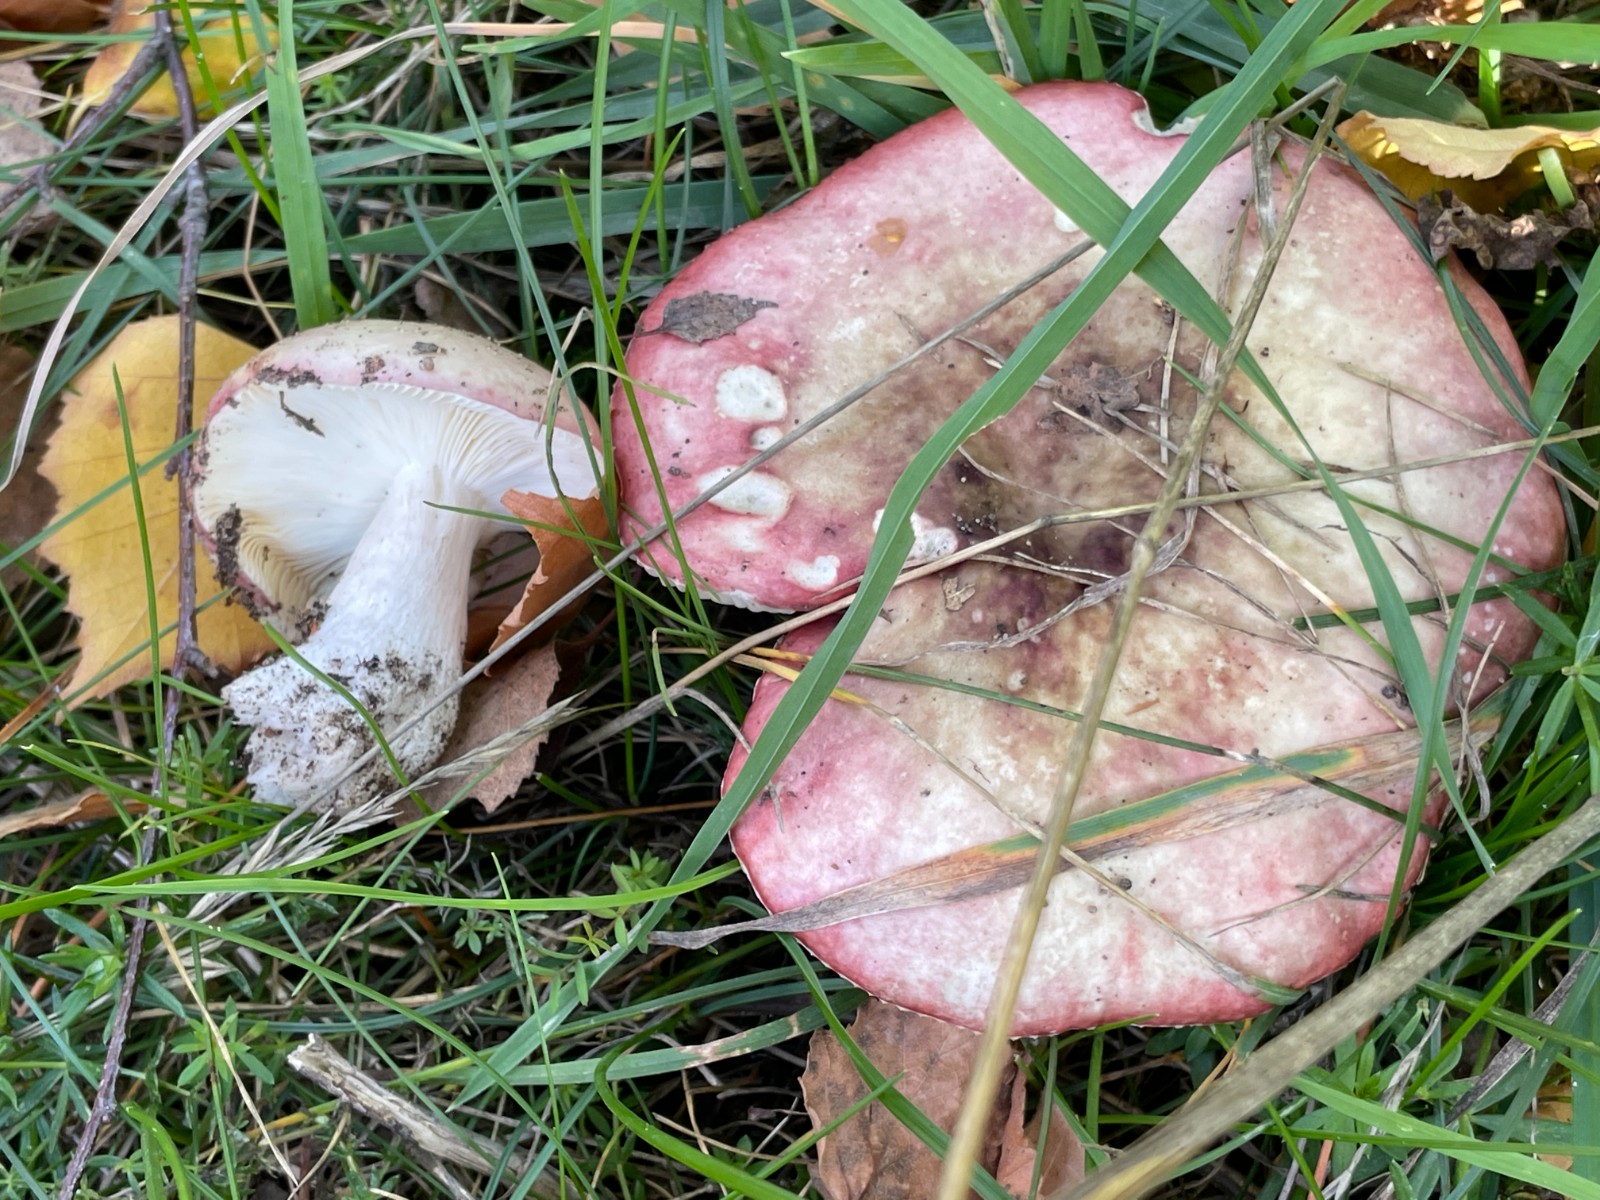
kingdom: Fungi
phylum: Basidiomycota
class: Agaricomycetes
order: Russulales
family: Russulaceae
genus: Russula
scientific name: Russula depallens
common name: falmende skørhat
